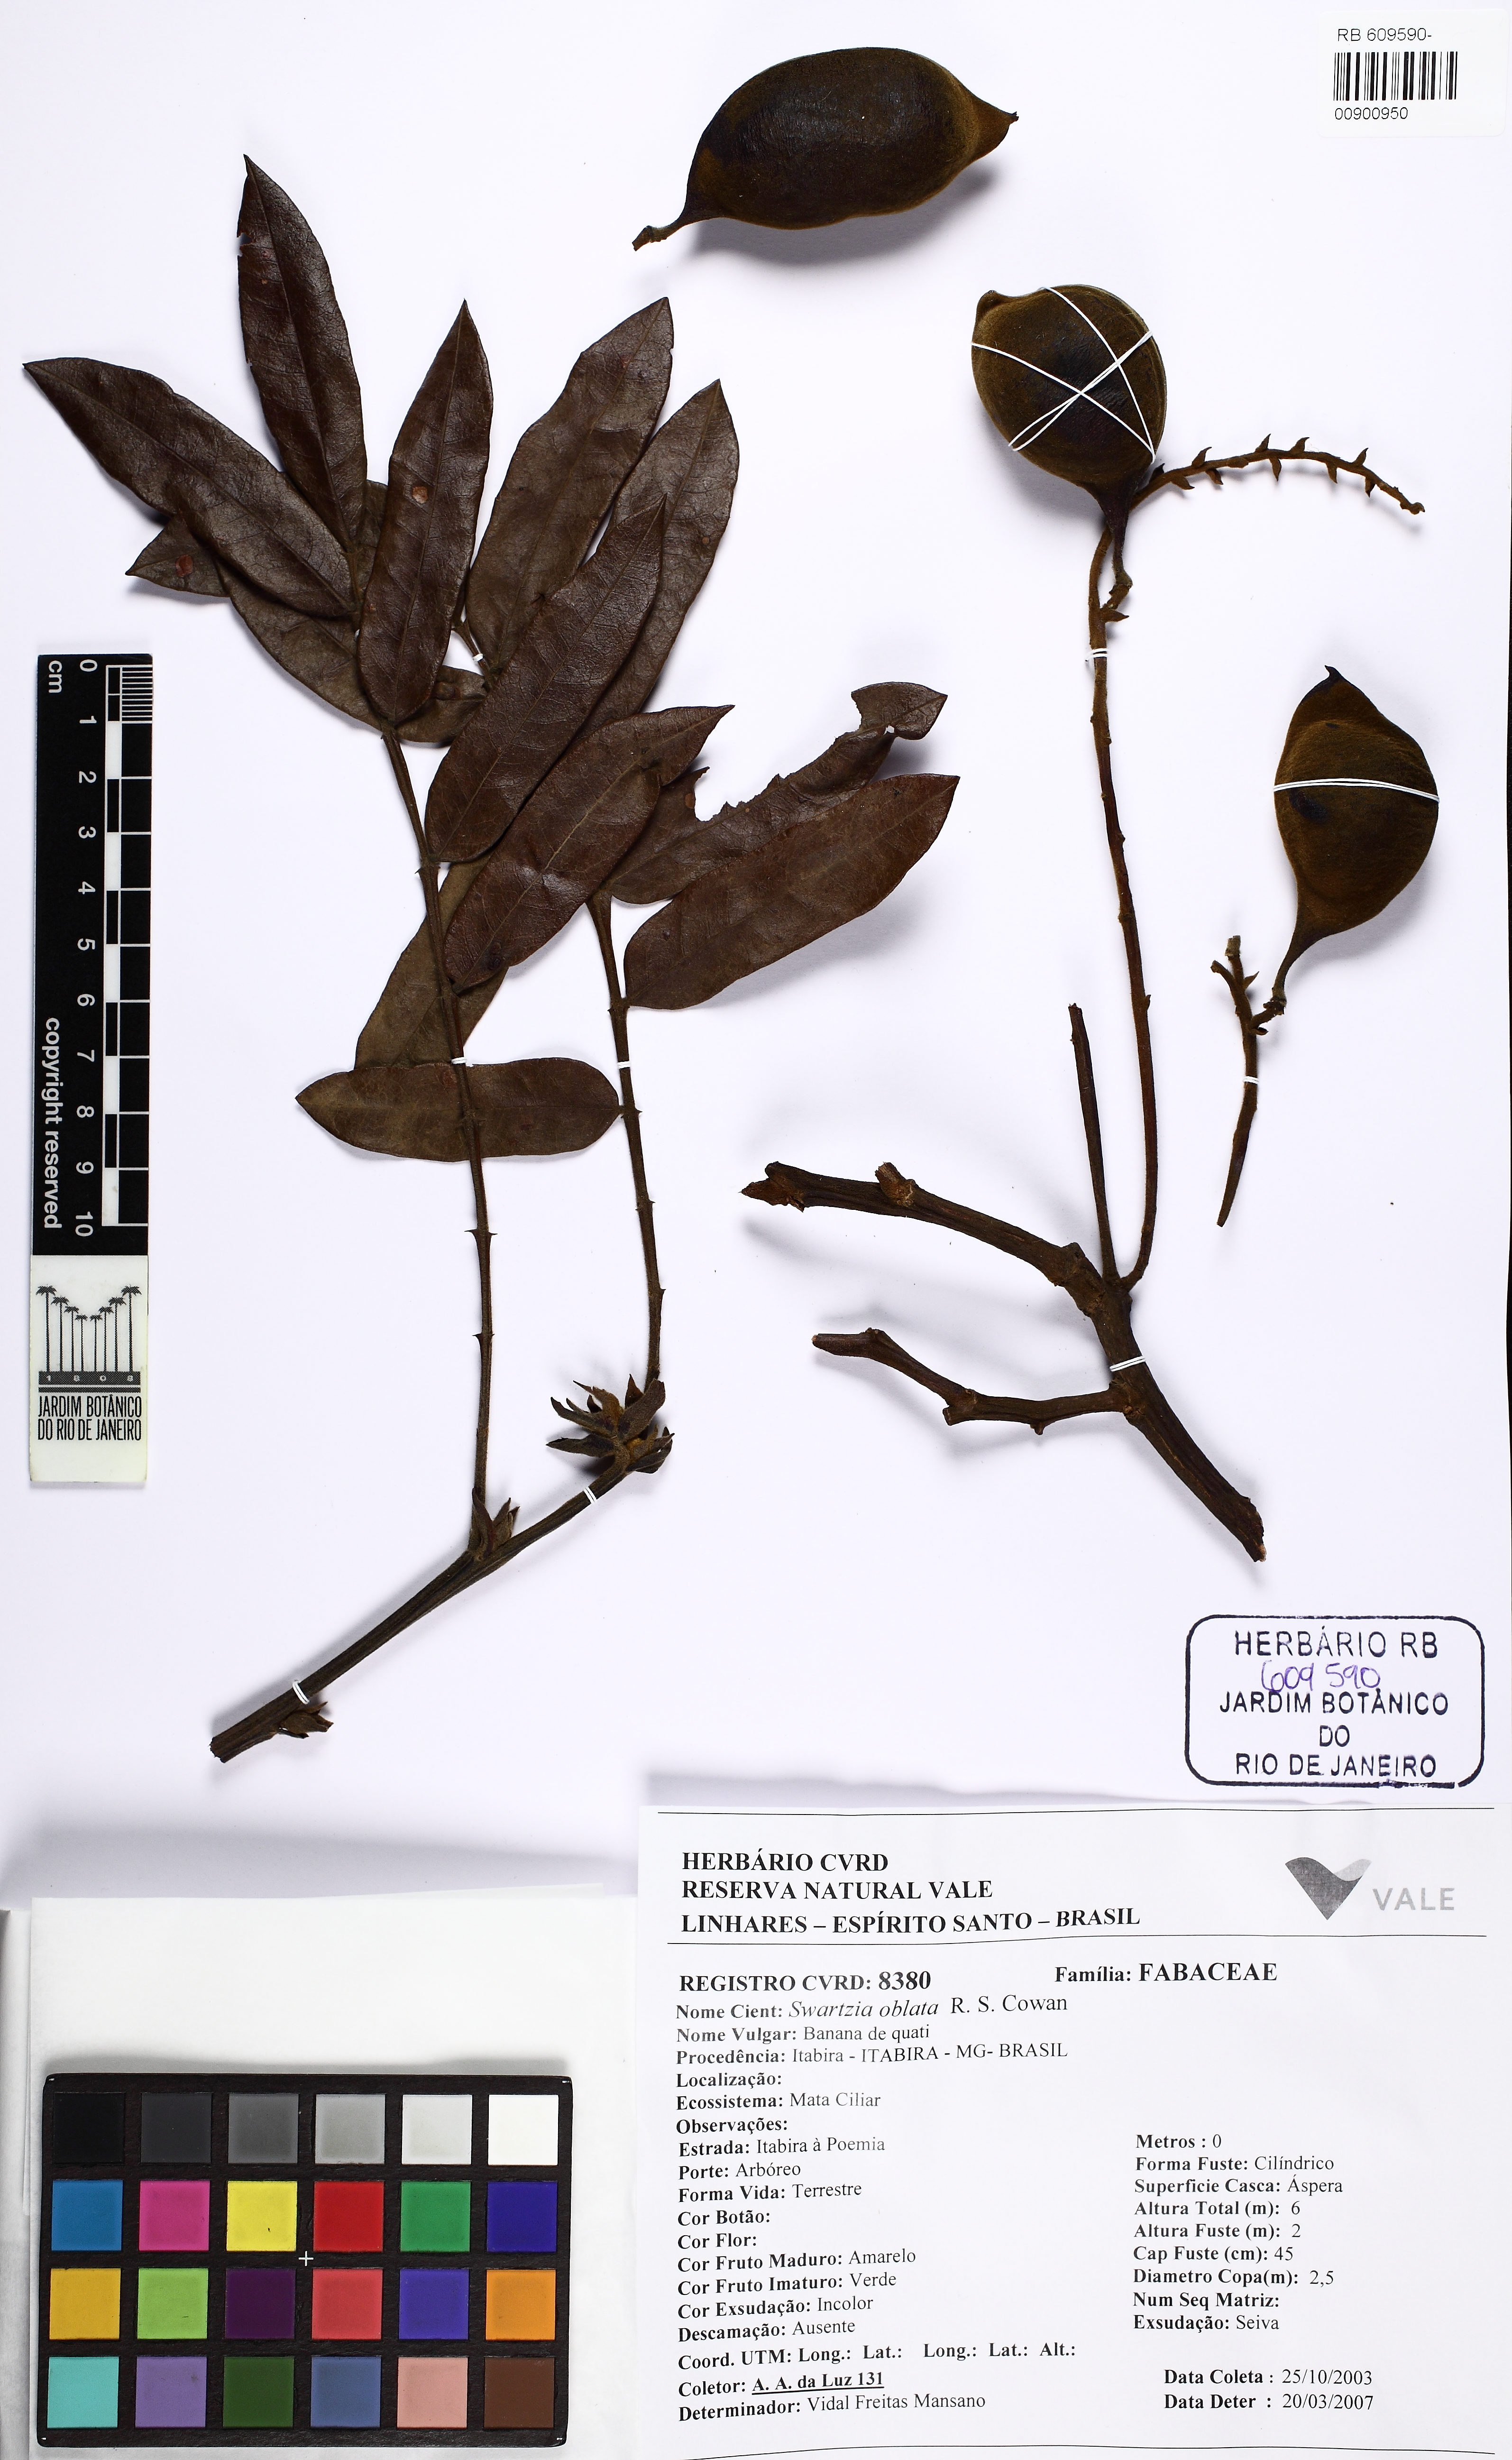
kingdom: Plantae
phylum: Tracheophyta
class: Magnoliopsida
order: Fabales
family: Fabaceae
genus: Swartzia
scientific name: Swartzia oblata
